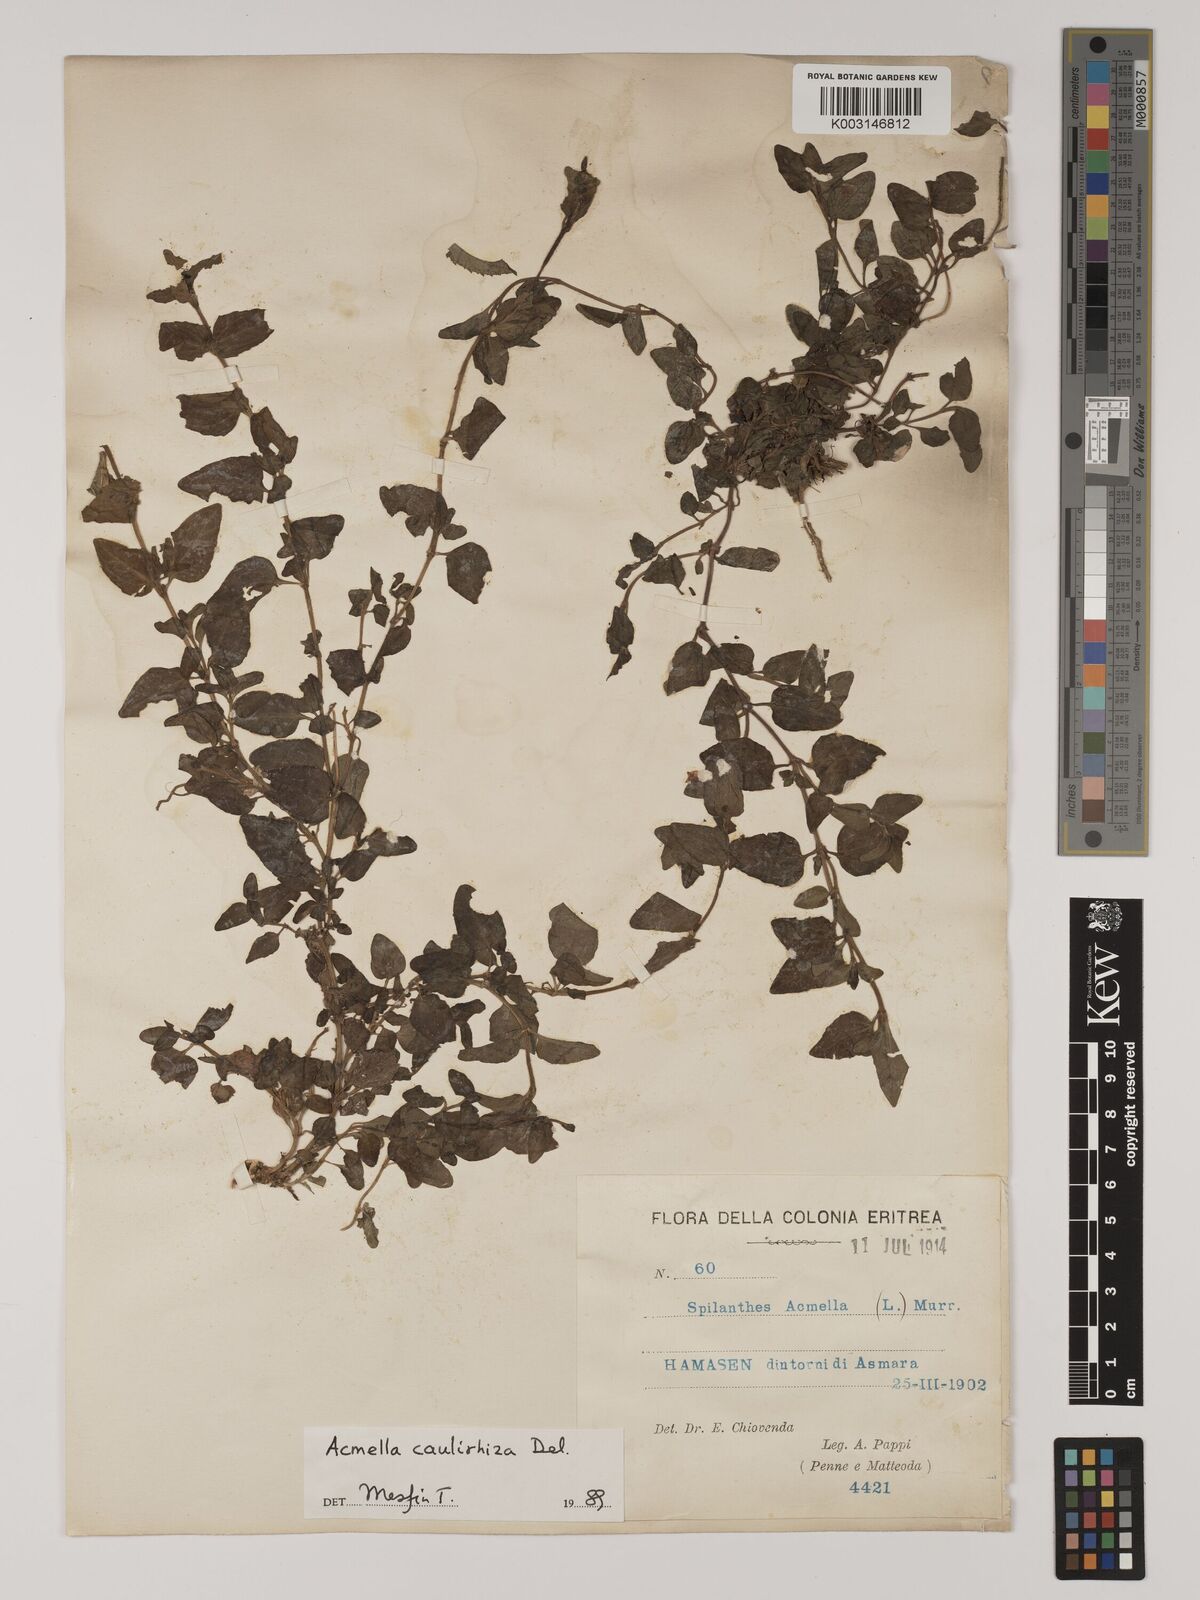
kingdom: Plantae
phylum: Tracheophyta
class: Magnoliopsida
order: Asterales
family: Asteraceae
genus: Blainvillea
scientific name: Blainvillea acmella
